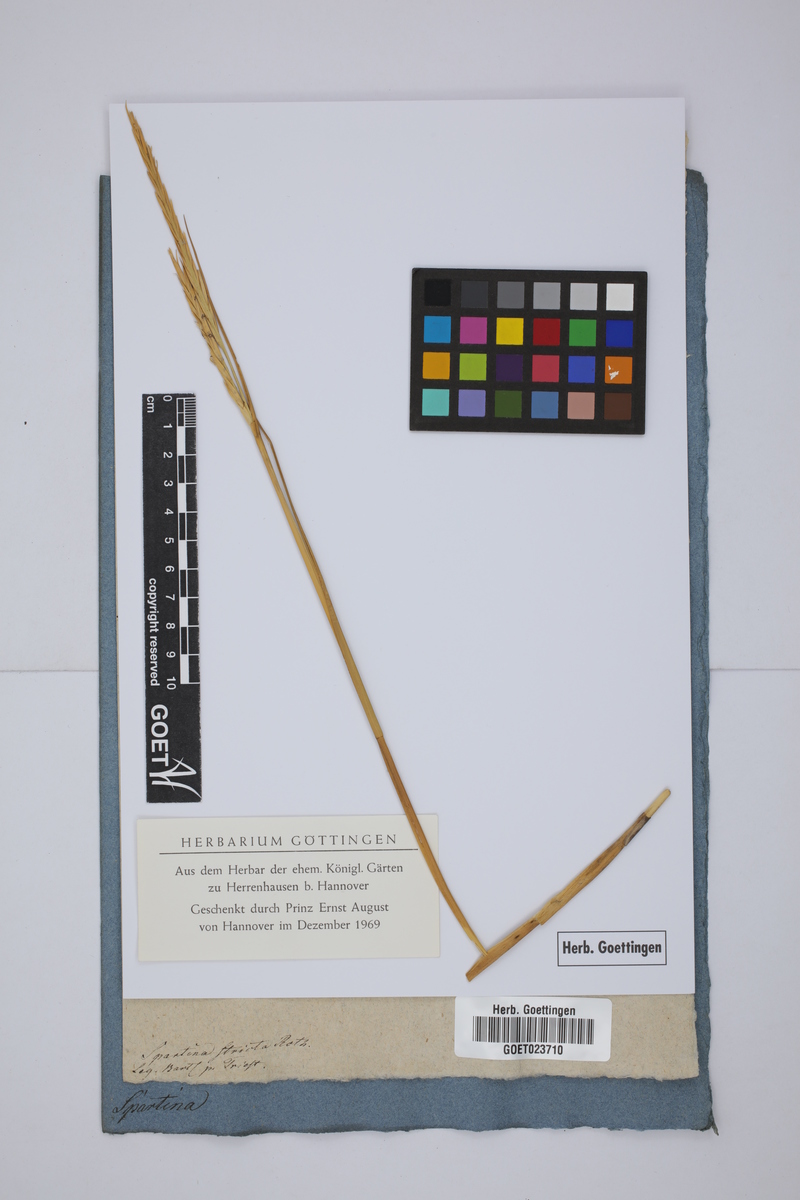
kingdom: Plantae
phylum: Tracheophyta
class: Liliopsida
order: Poales
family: Poaceae
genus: Sporobolus
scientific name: Sporobolus maritimus
